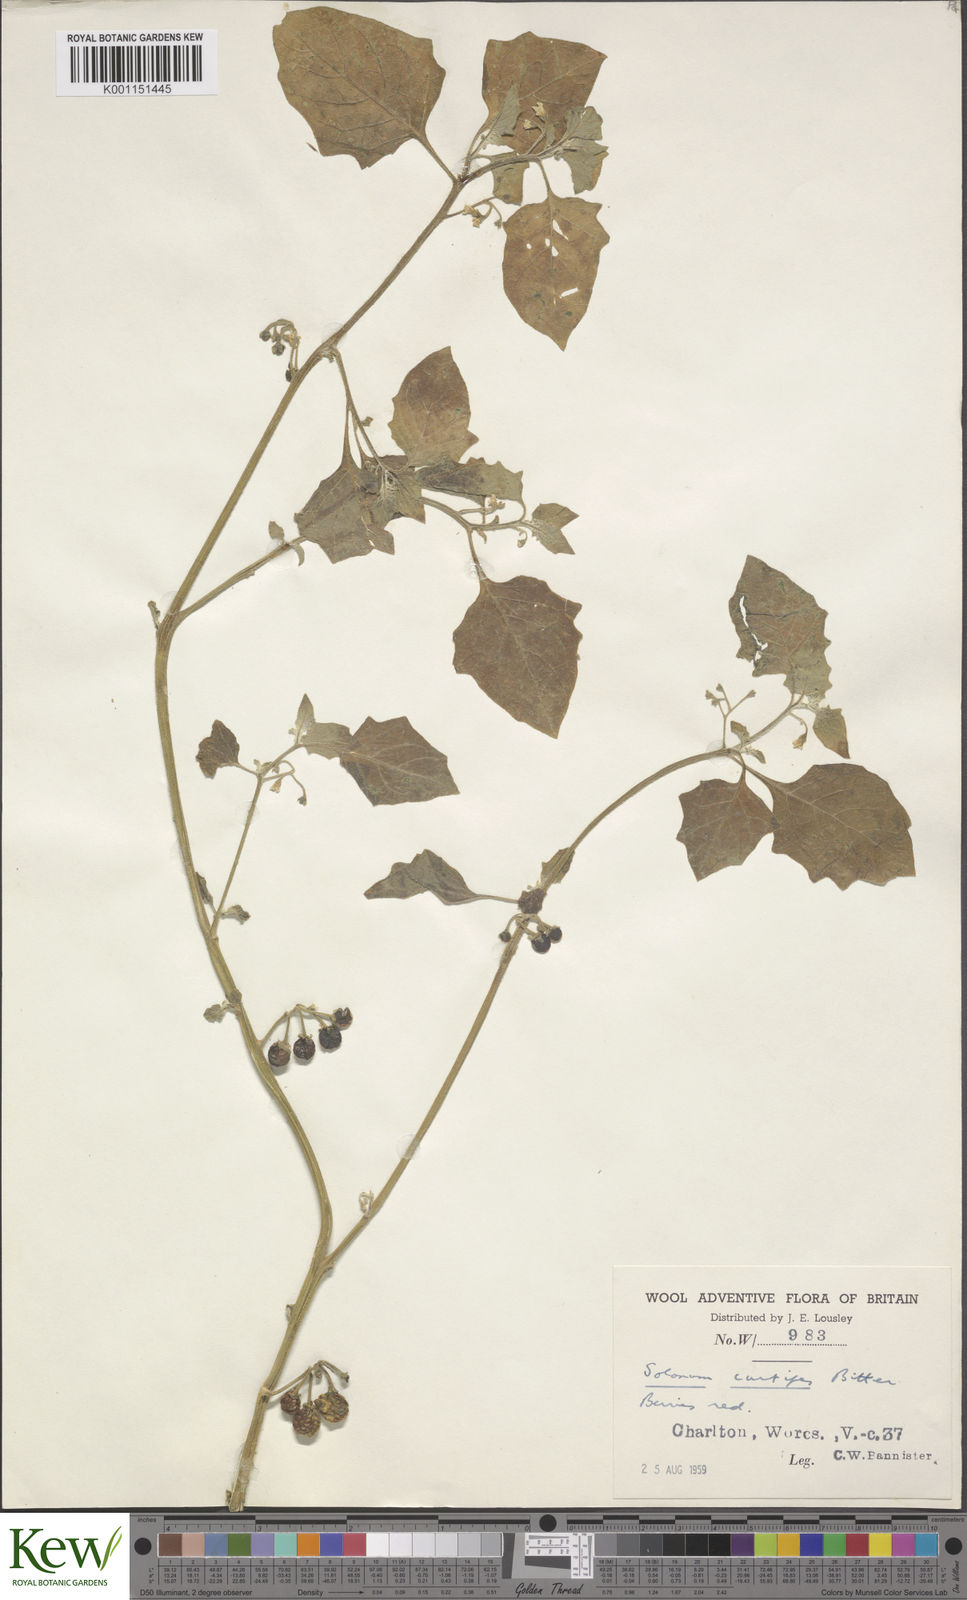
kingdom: Plantae
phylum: Tracheophyta
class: Magnoliopsida
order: Solanales
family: Solanaceae
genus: Solanum
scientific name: Solanum villosum
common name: Red nightshade
